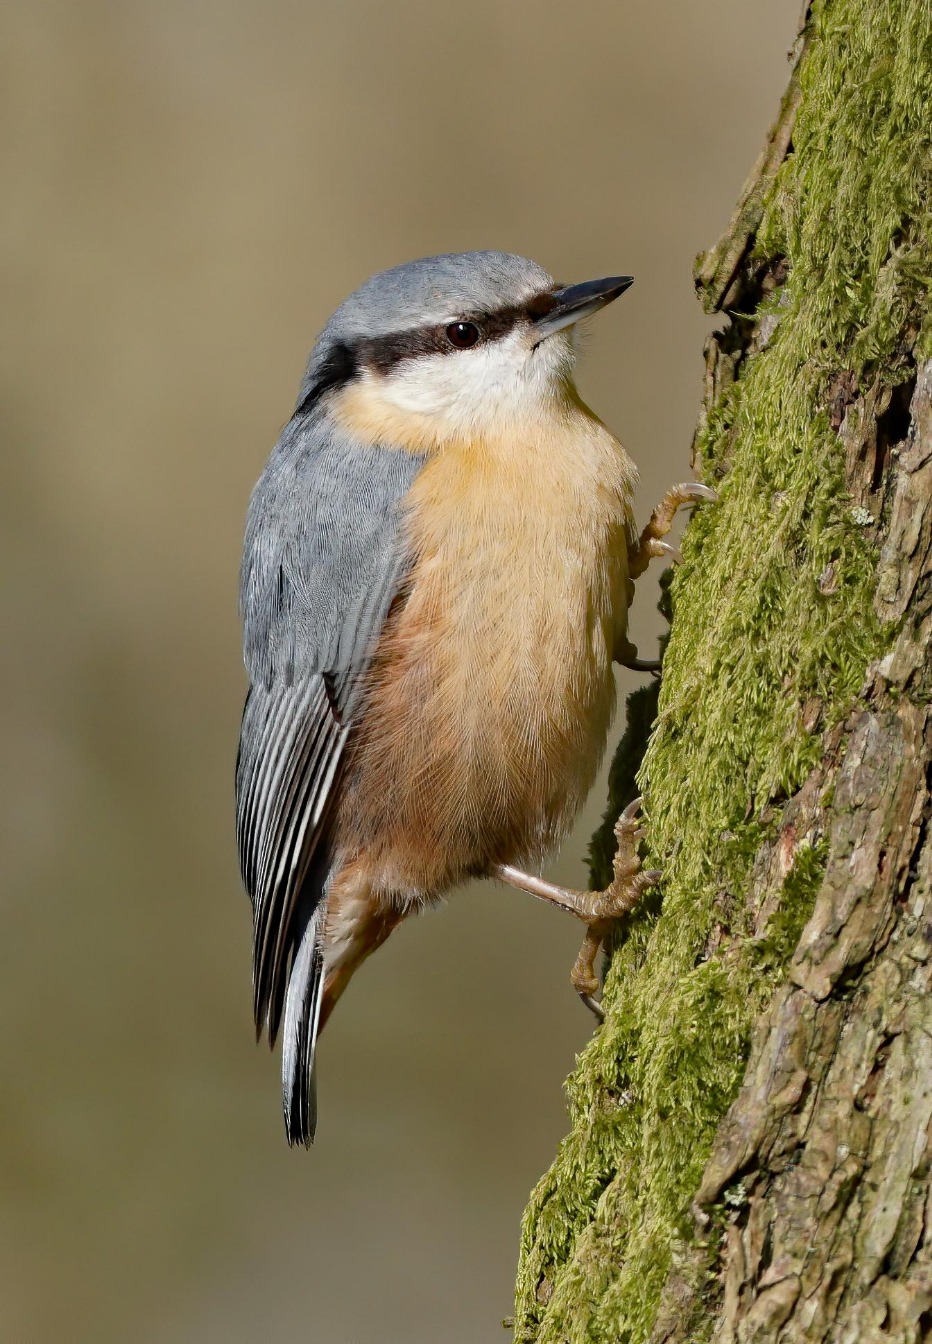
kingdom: Animalia
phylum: Chordata
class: Aves
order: Passeriformes
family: Sittidae
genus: Sitta
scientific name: Sitta europaea
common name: Spætmejse
